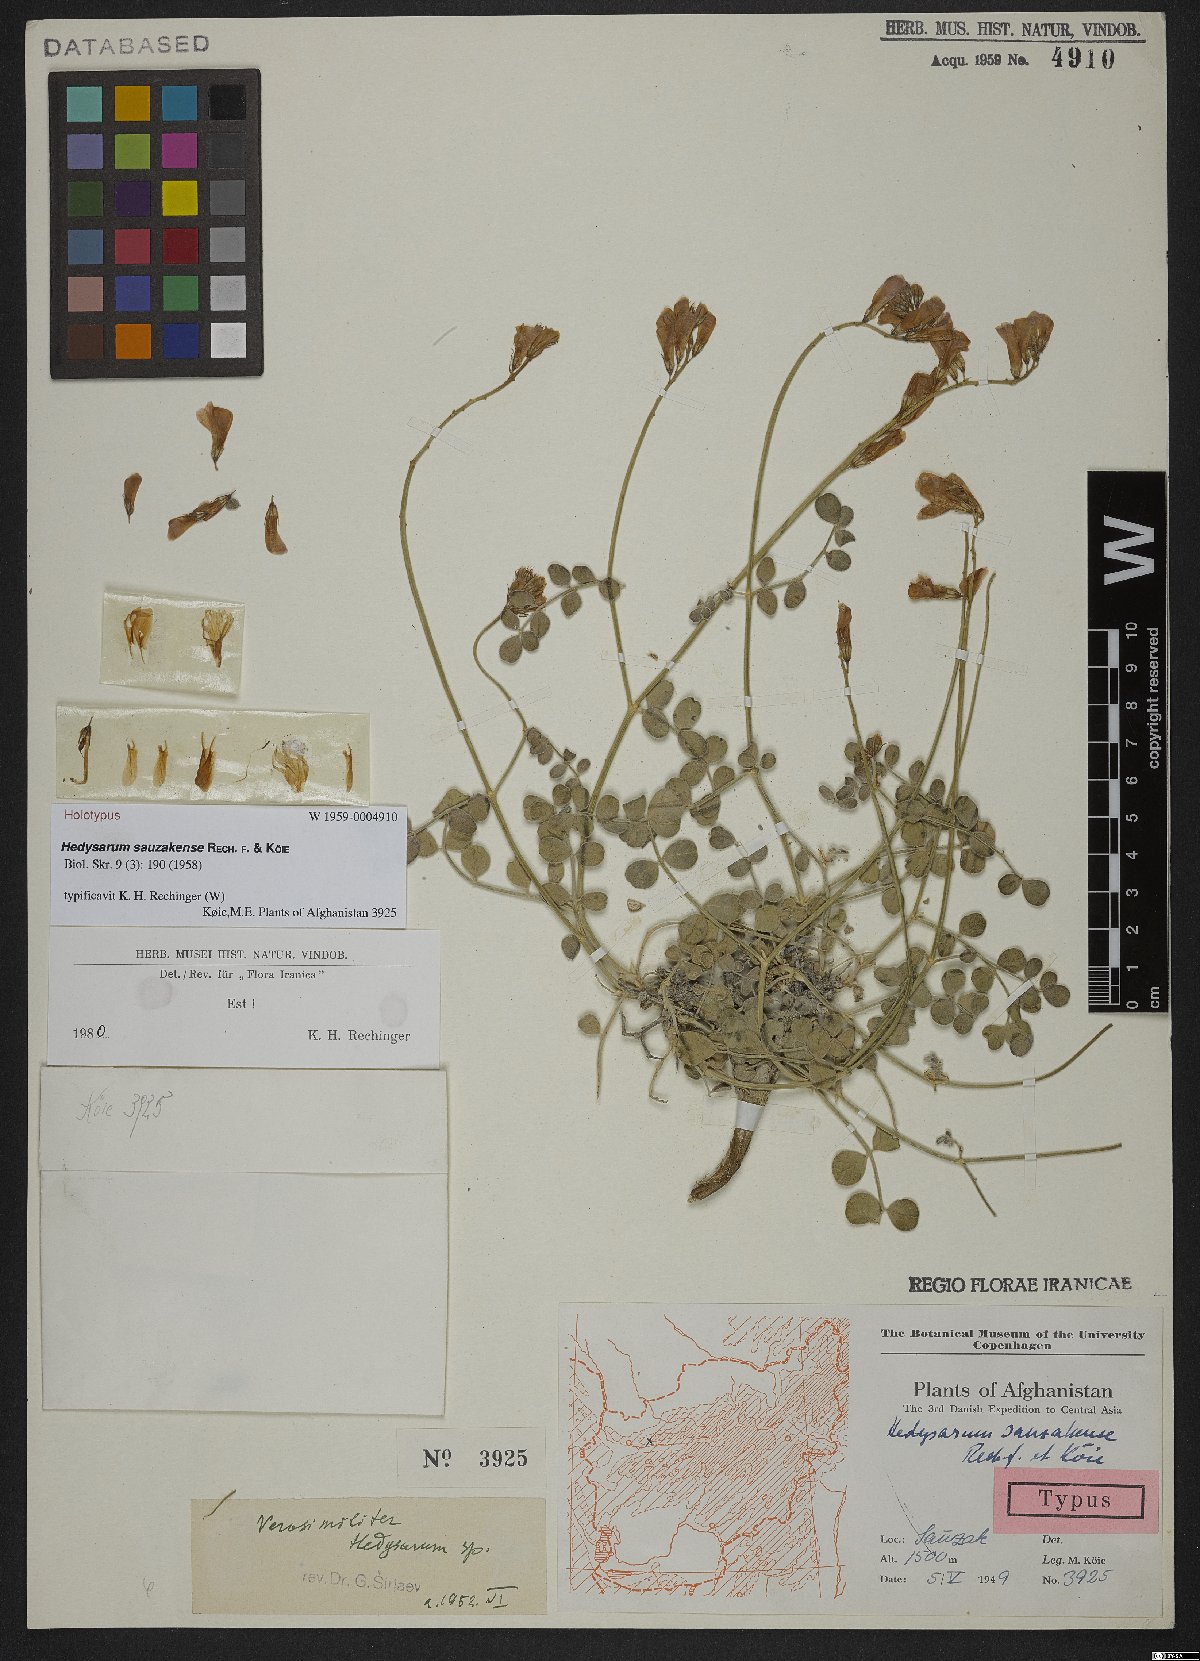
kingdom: Plantae
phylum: Tracheophyta
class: Magnoliopsida
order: Fabales
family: Fabaceae
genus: Hedysarum
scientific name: Hedysarum sauzakense
